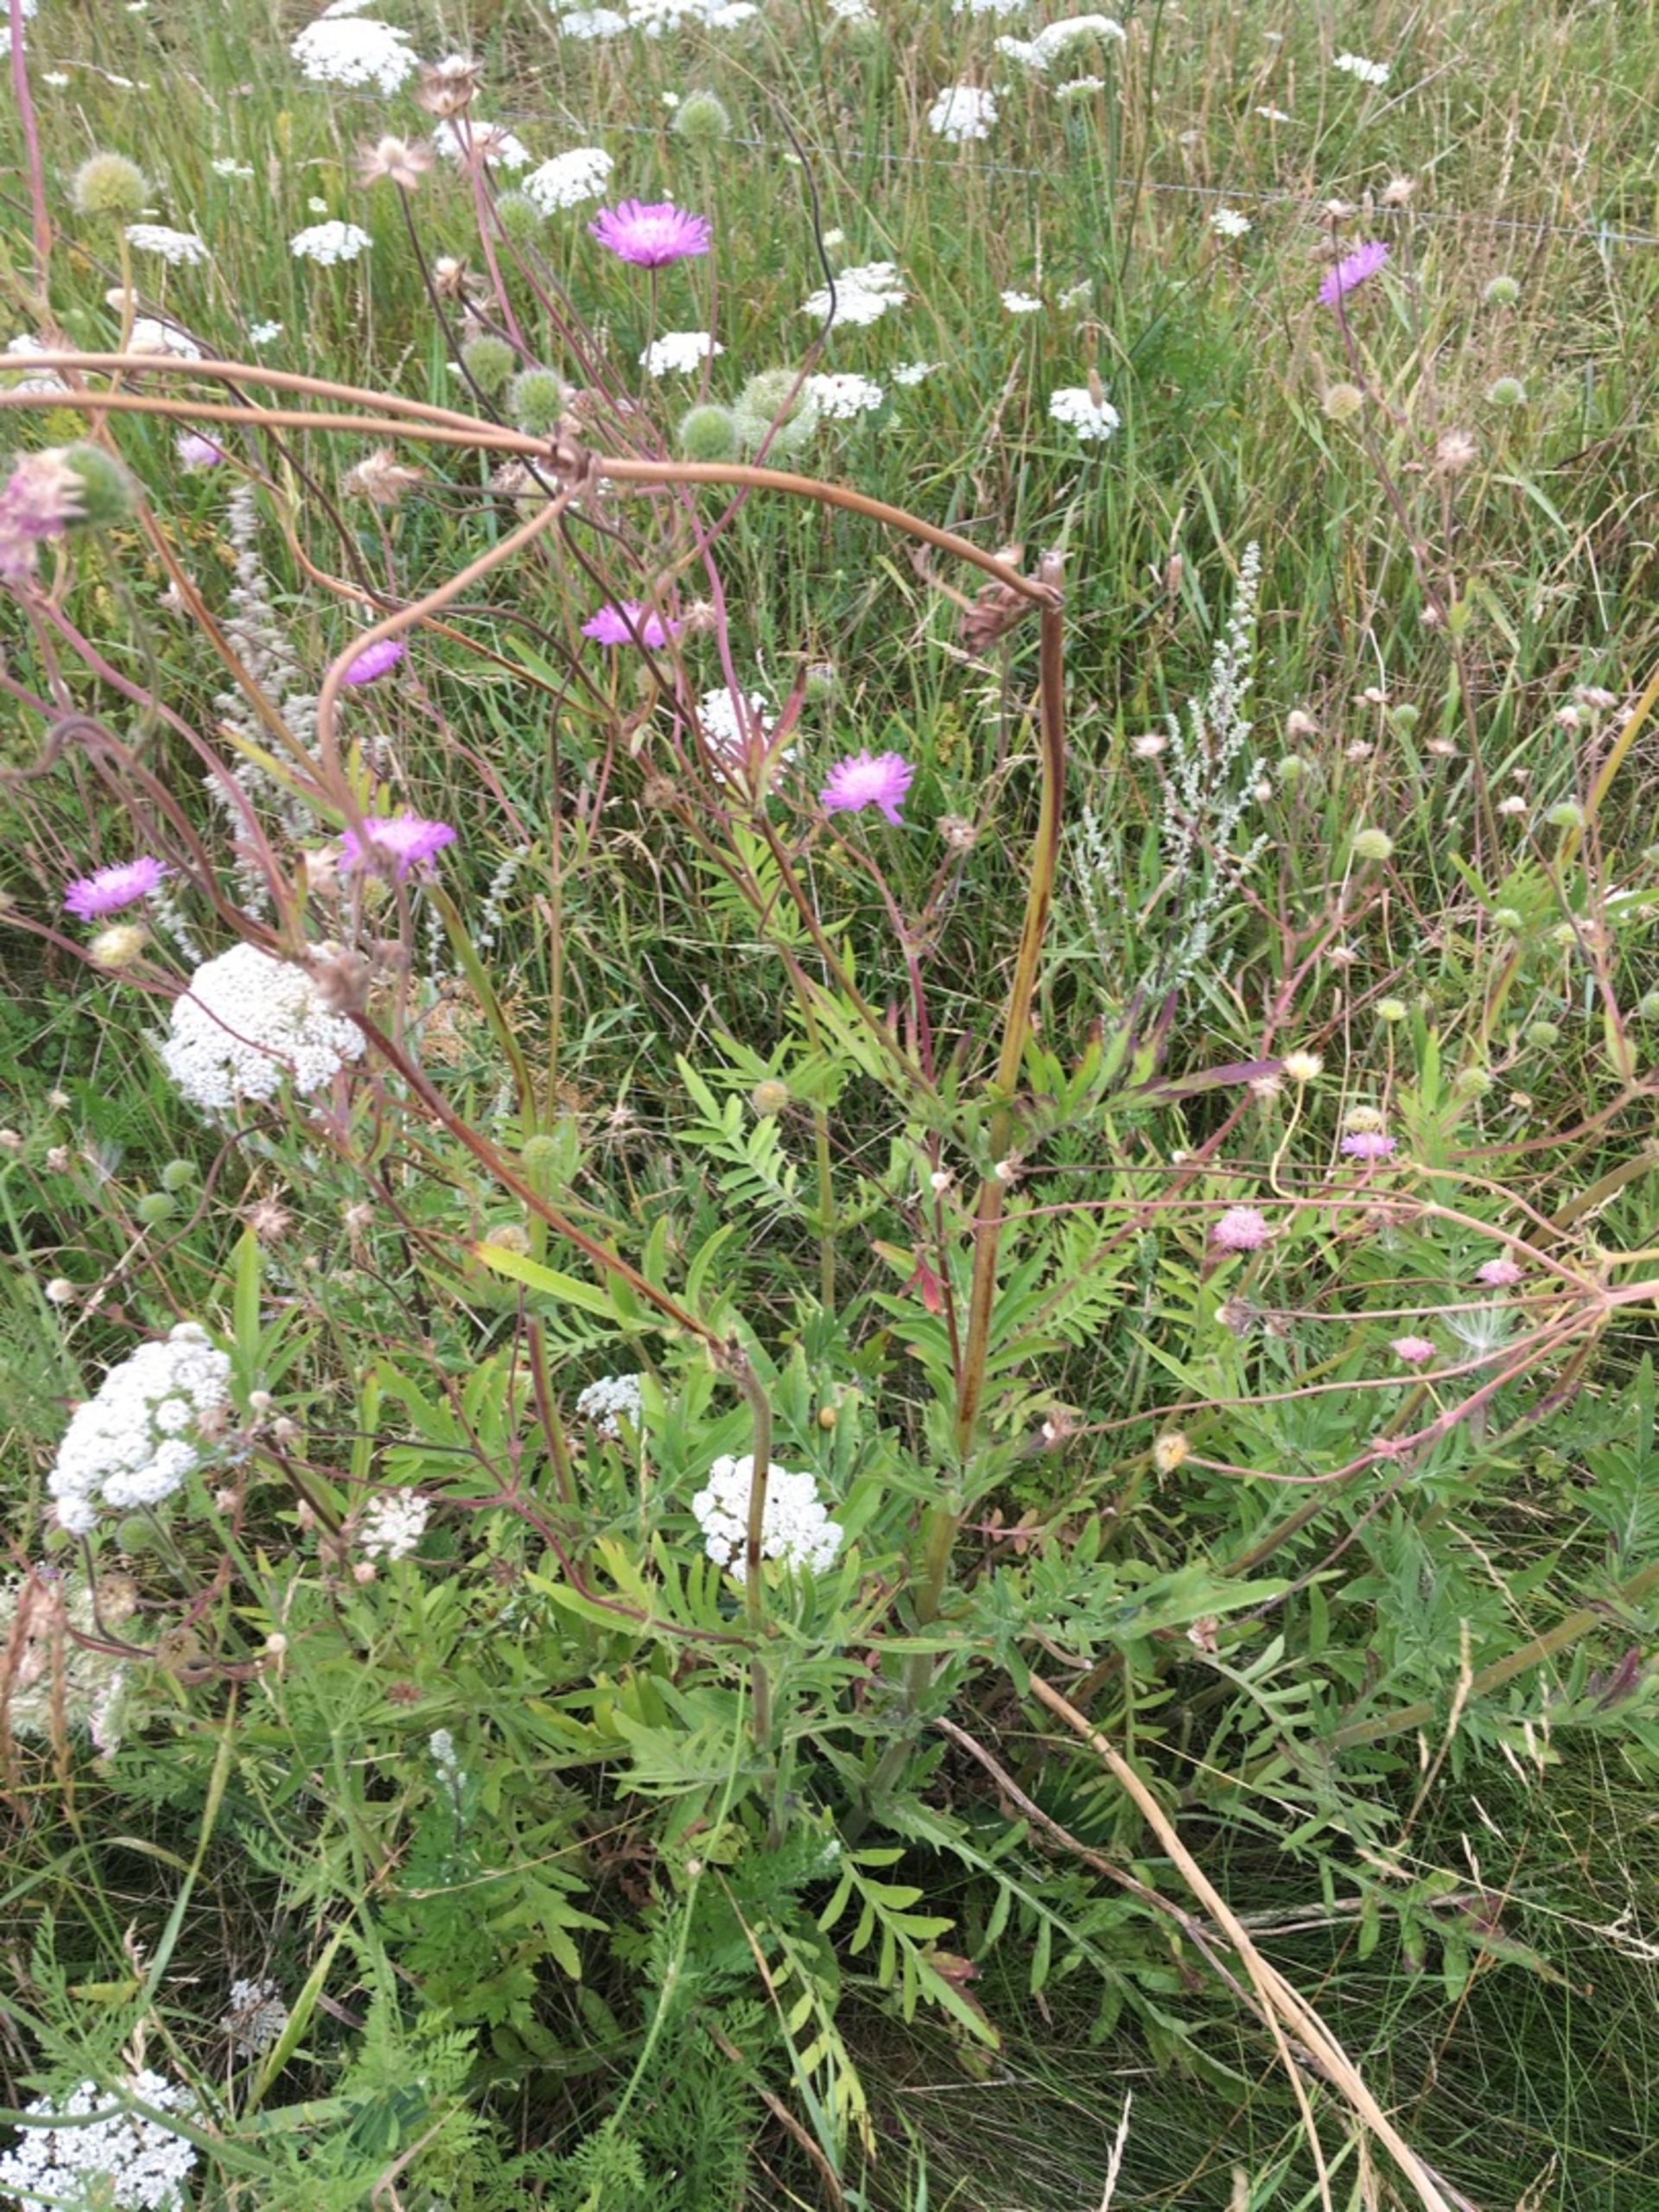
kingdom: Plantae
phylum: Tracheophyta
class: Magnoliopsida
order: Dipsacales
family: Caprifoliaceae
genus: Knautia
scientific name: Knautia arvensis
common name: Blåhat
